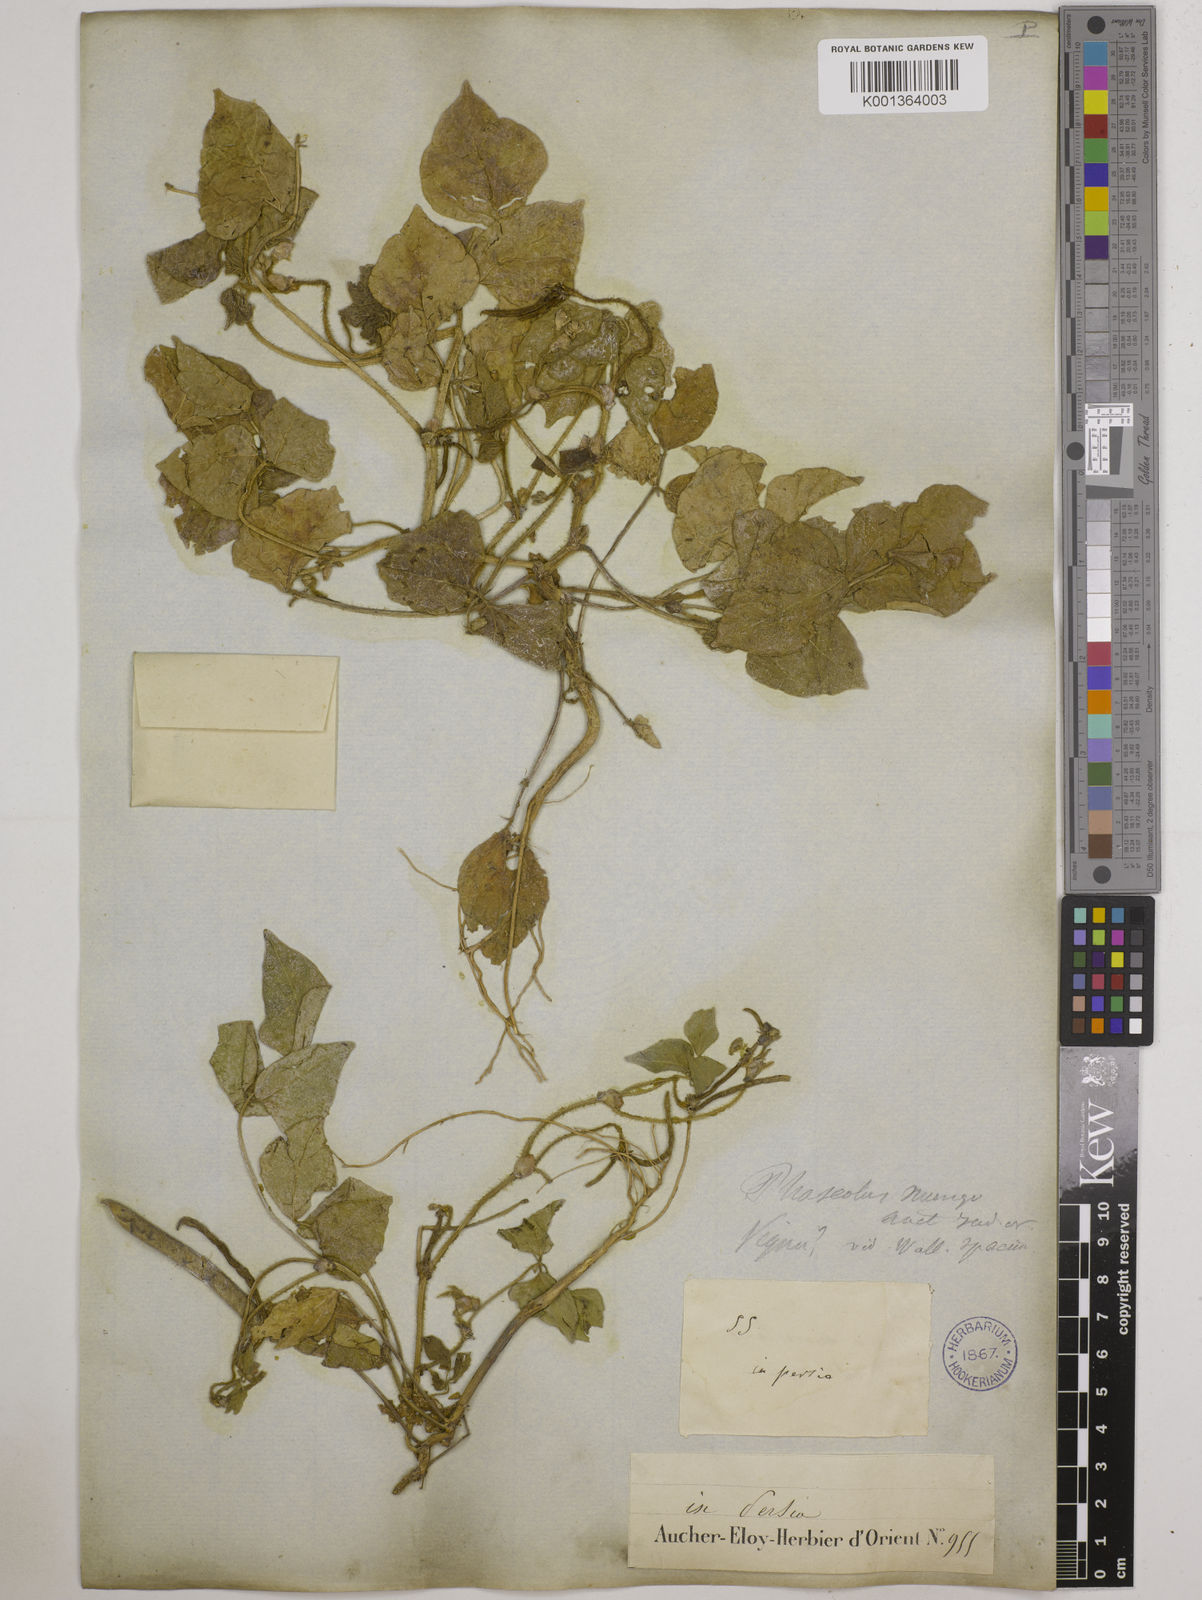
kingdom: Plantae
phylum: Tracheophyta
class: Magnoliopsida
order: Fabales
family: Fabaceae
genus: Vigna
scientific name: Vigna radiata
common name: Mung-bean
